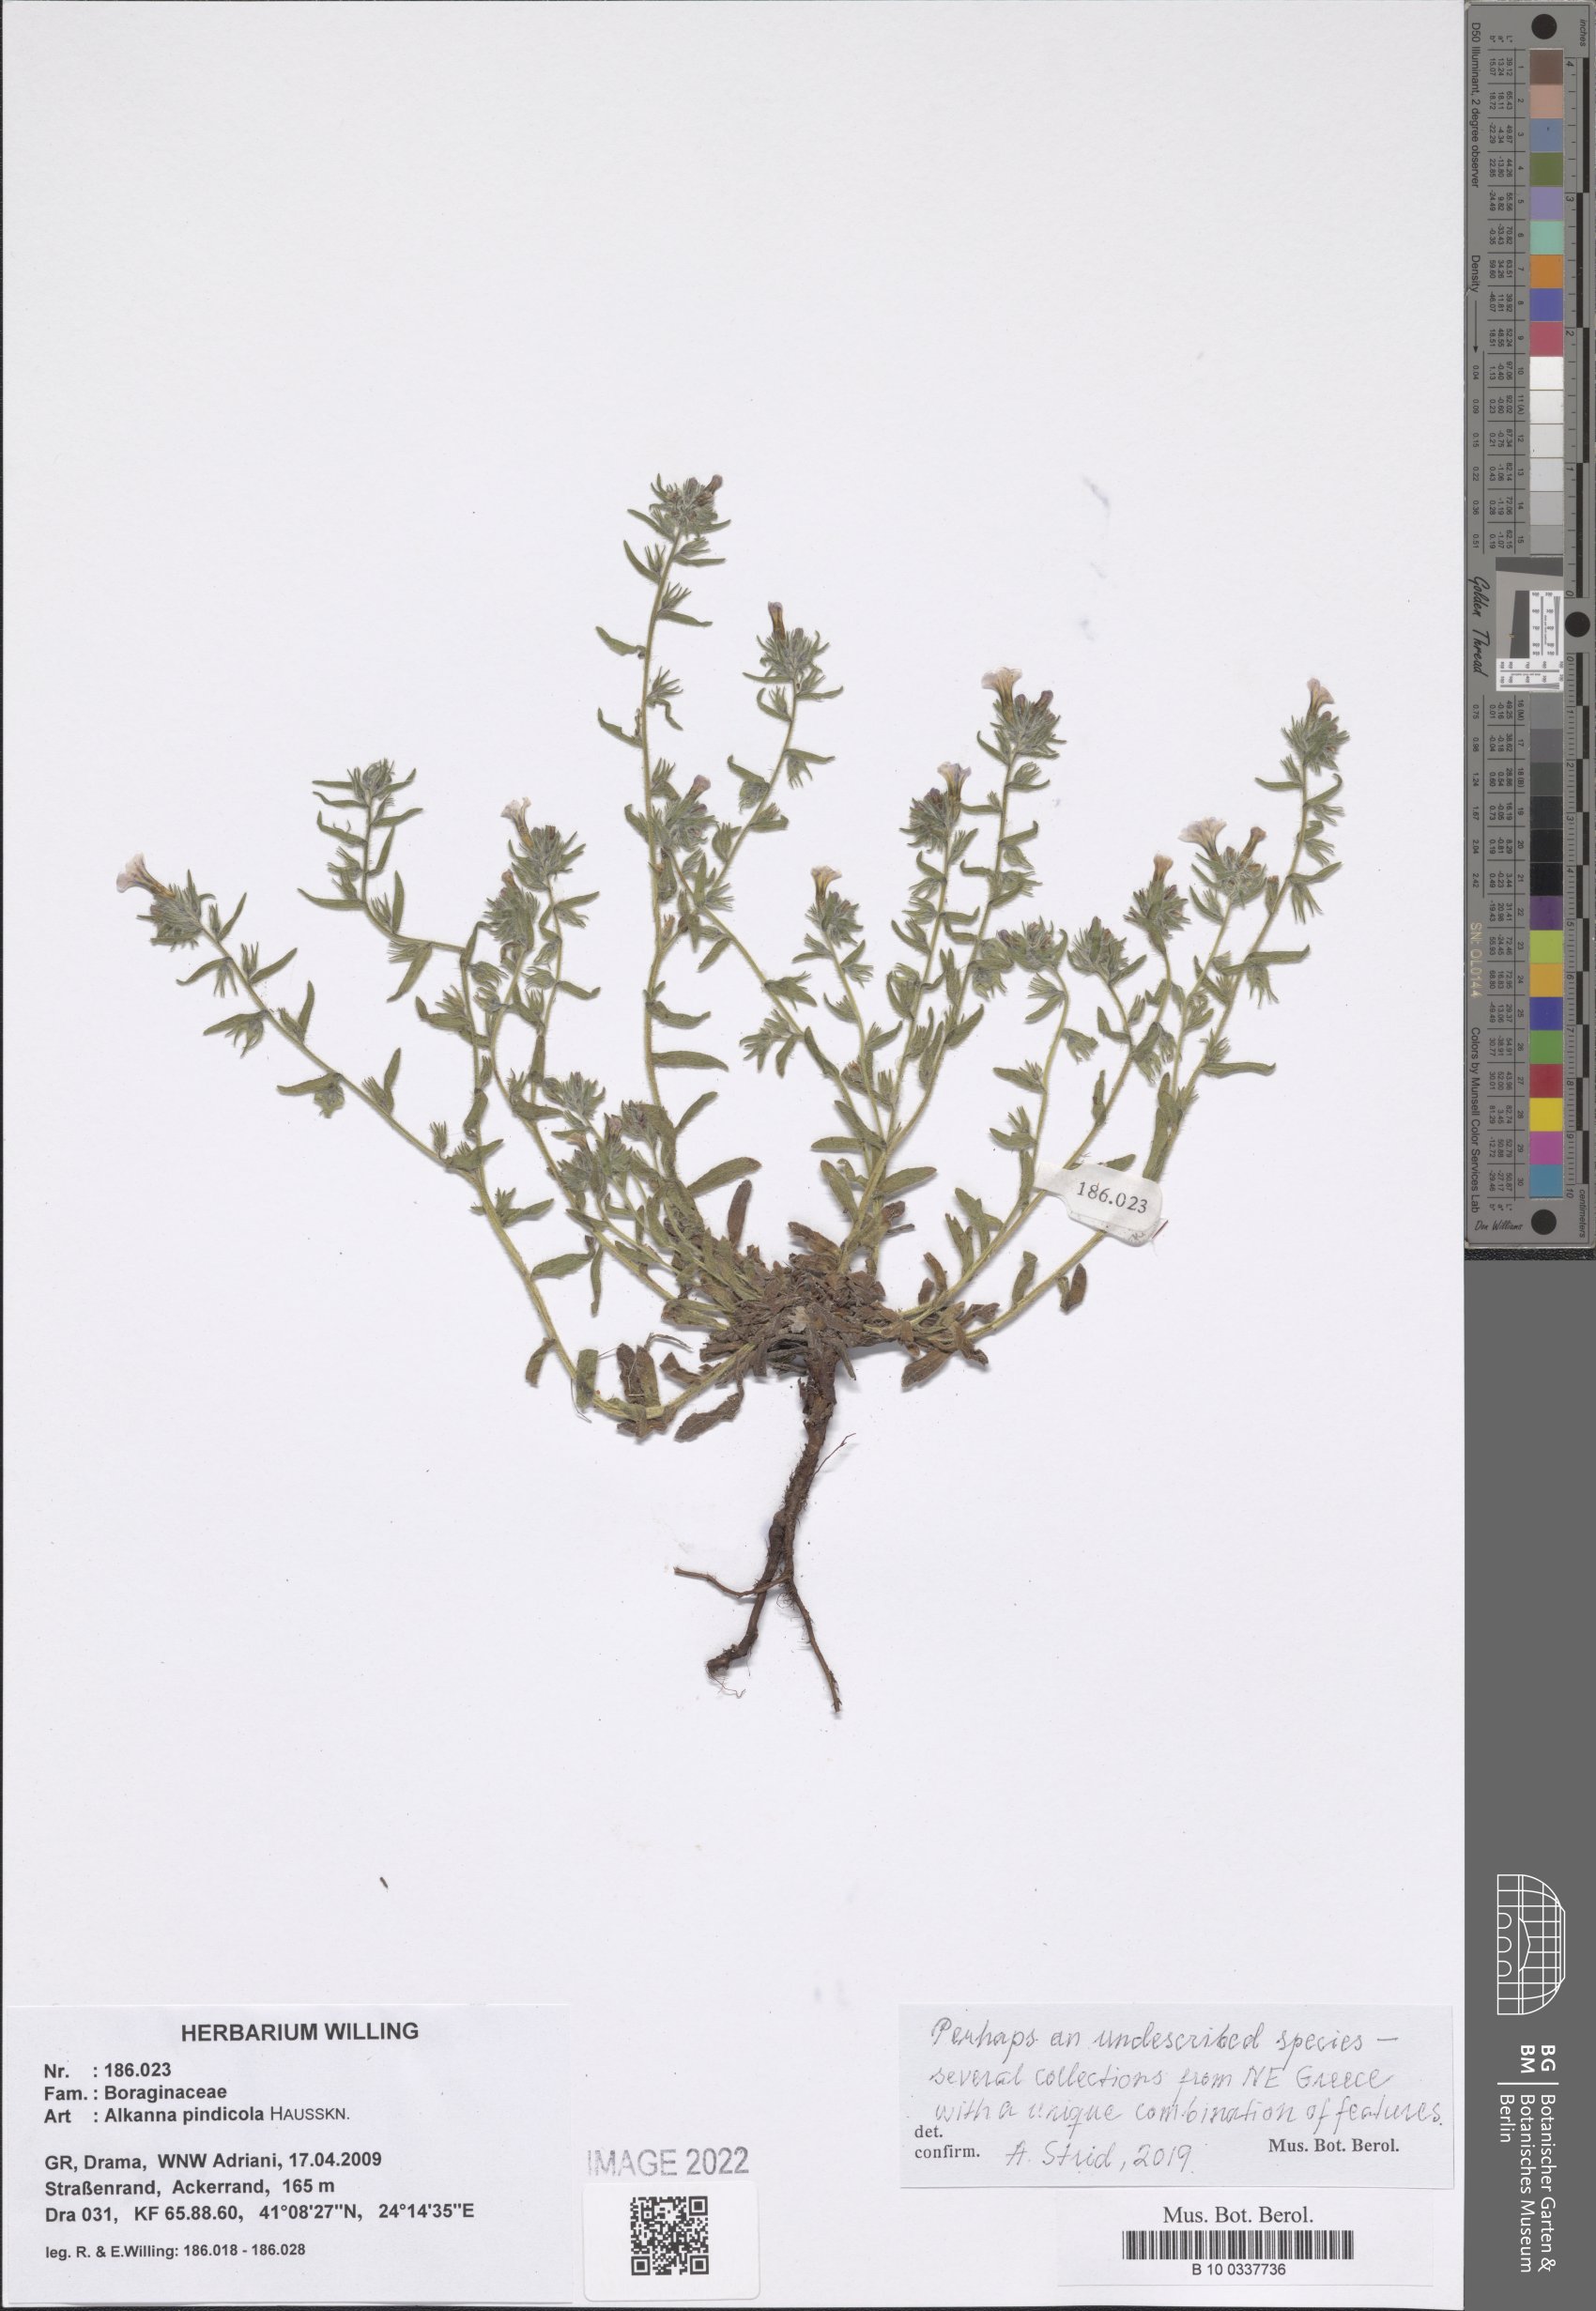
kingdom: Plantae
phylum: Tracheophyta
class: Magnoliopsida
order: Boraginales
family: Boraginaceae
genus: Alkanna
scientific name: Alkanna pindicola
